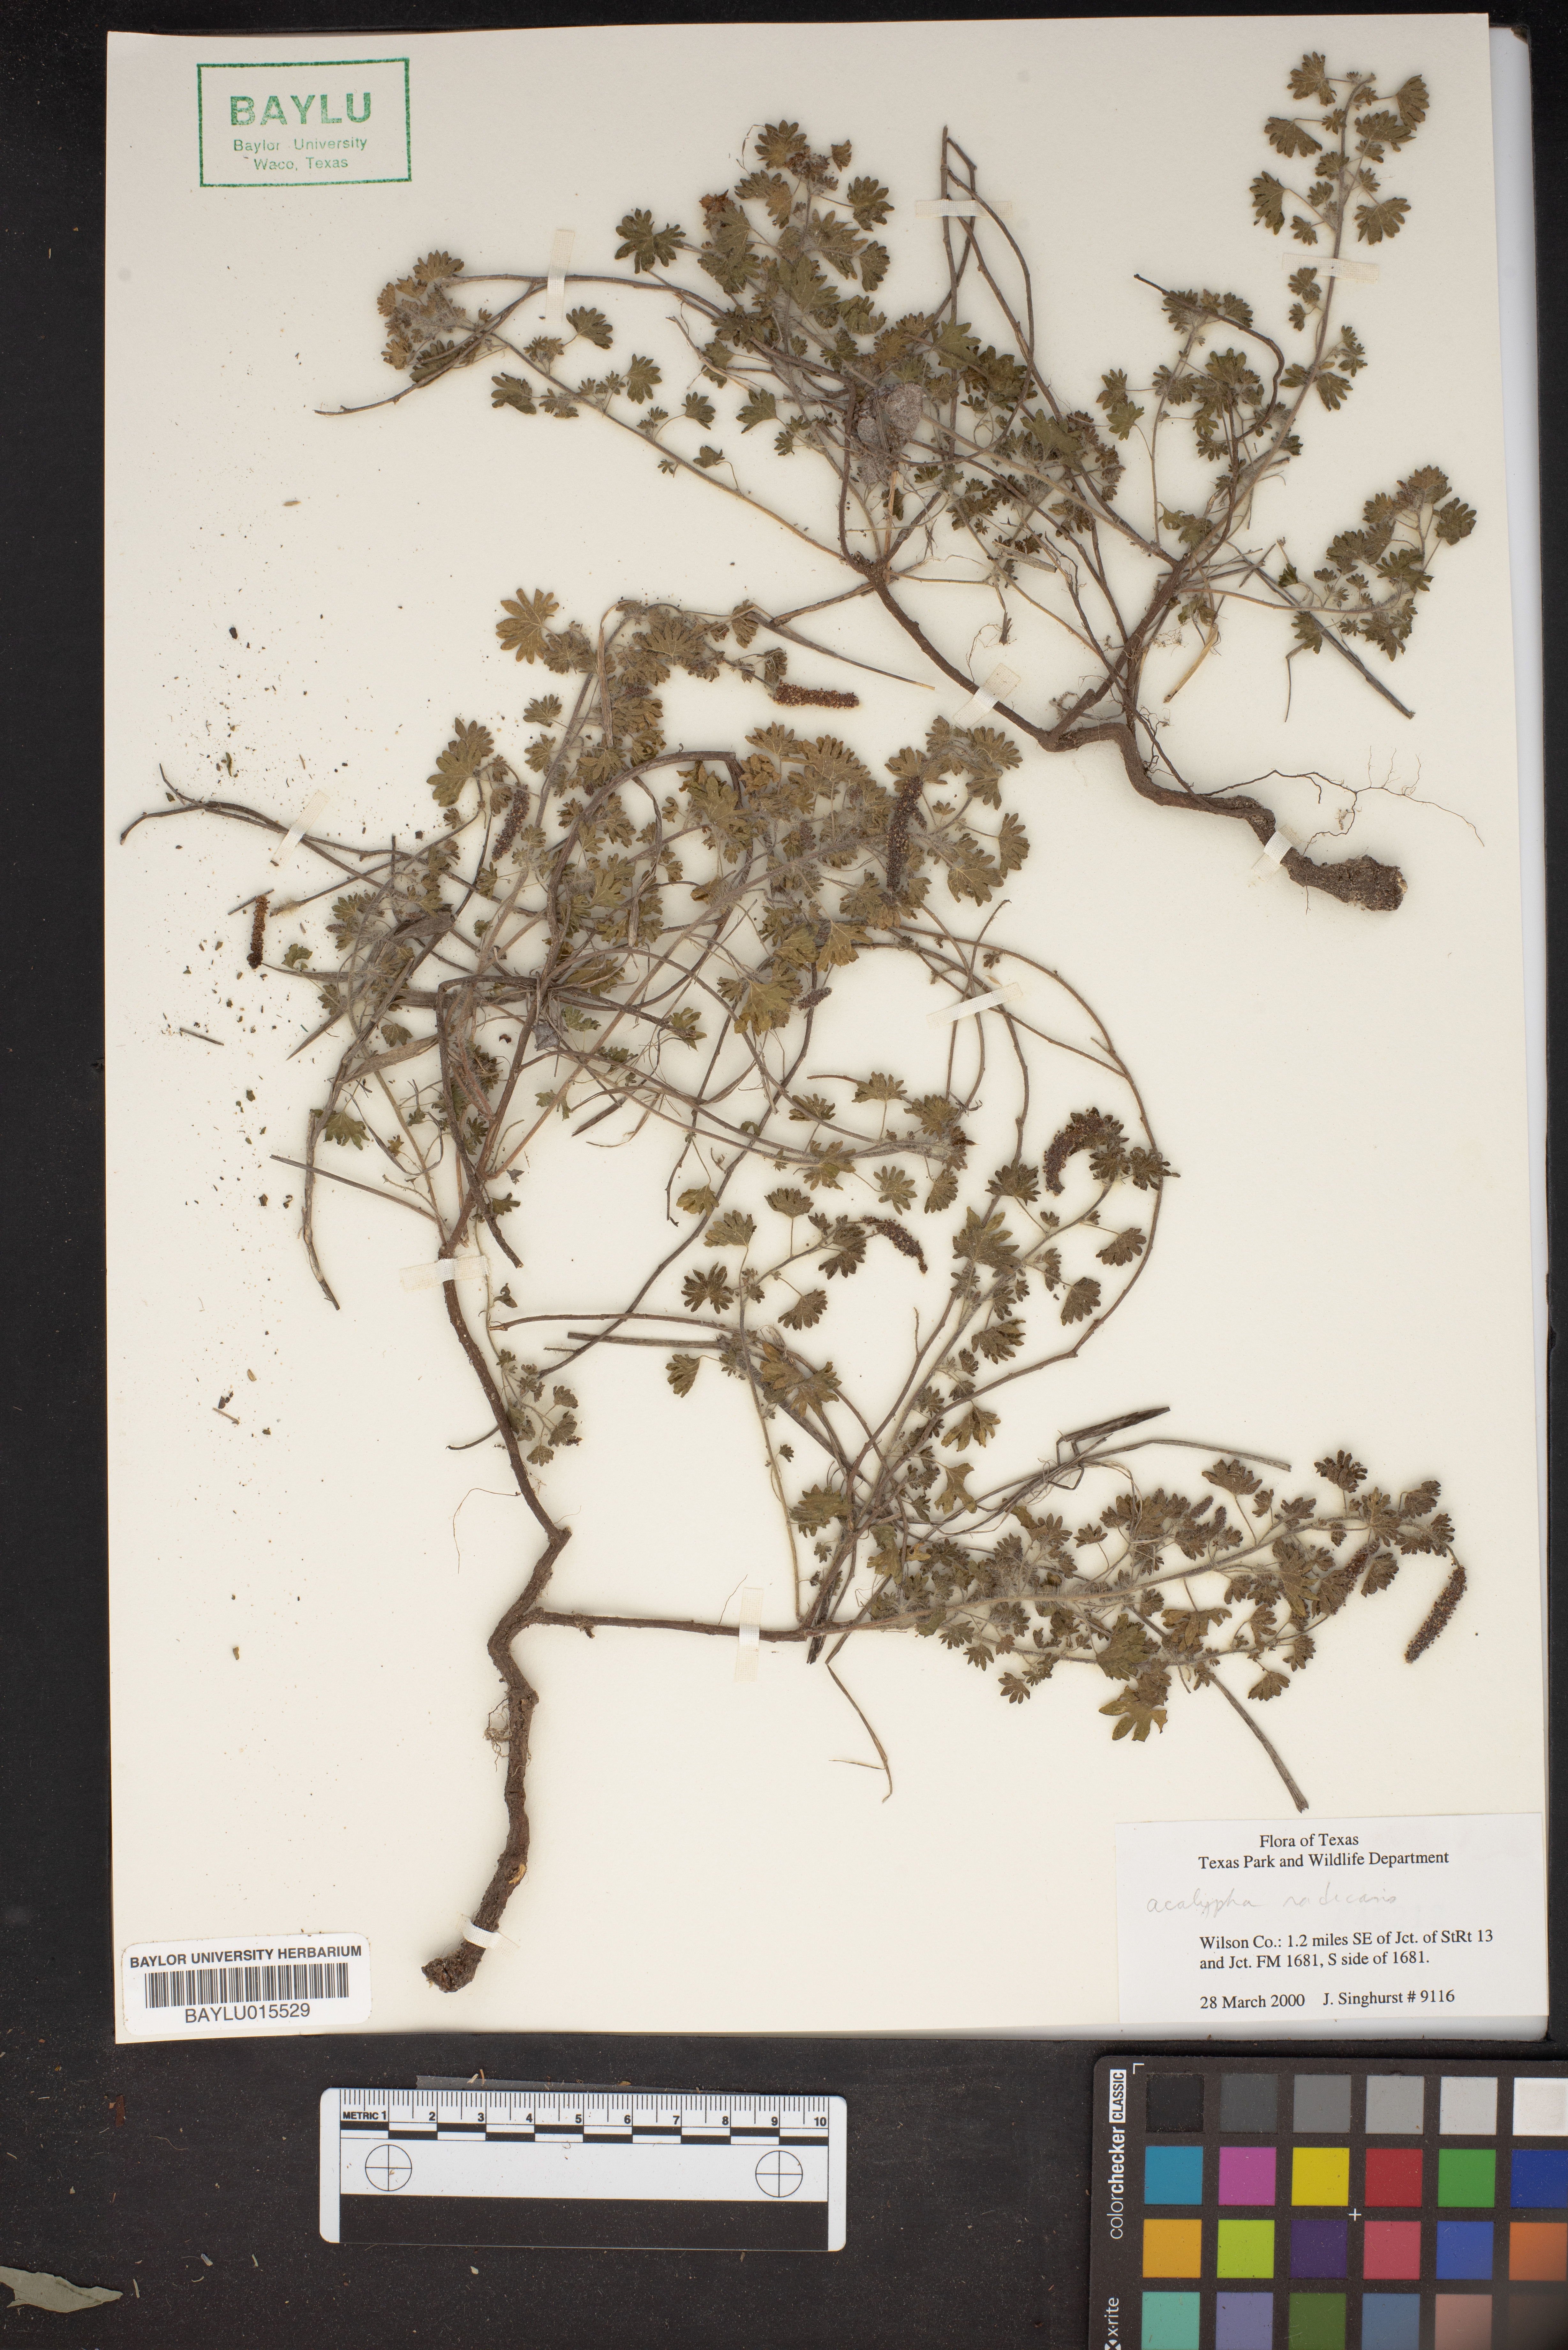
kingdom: Plantae
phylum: Tracheophyta
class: Magnoliopsida
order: Malpighiales
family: Euphorbiaceae
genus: Acalypha
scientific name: Acalypha radians
